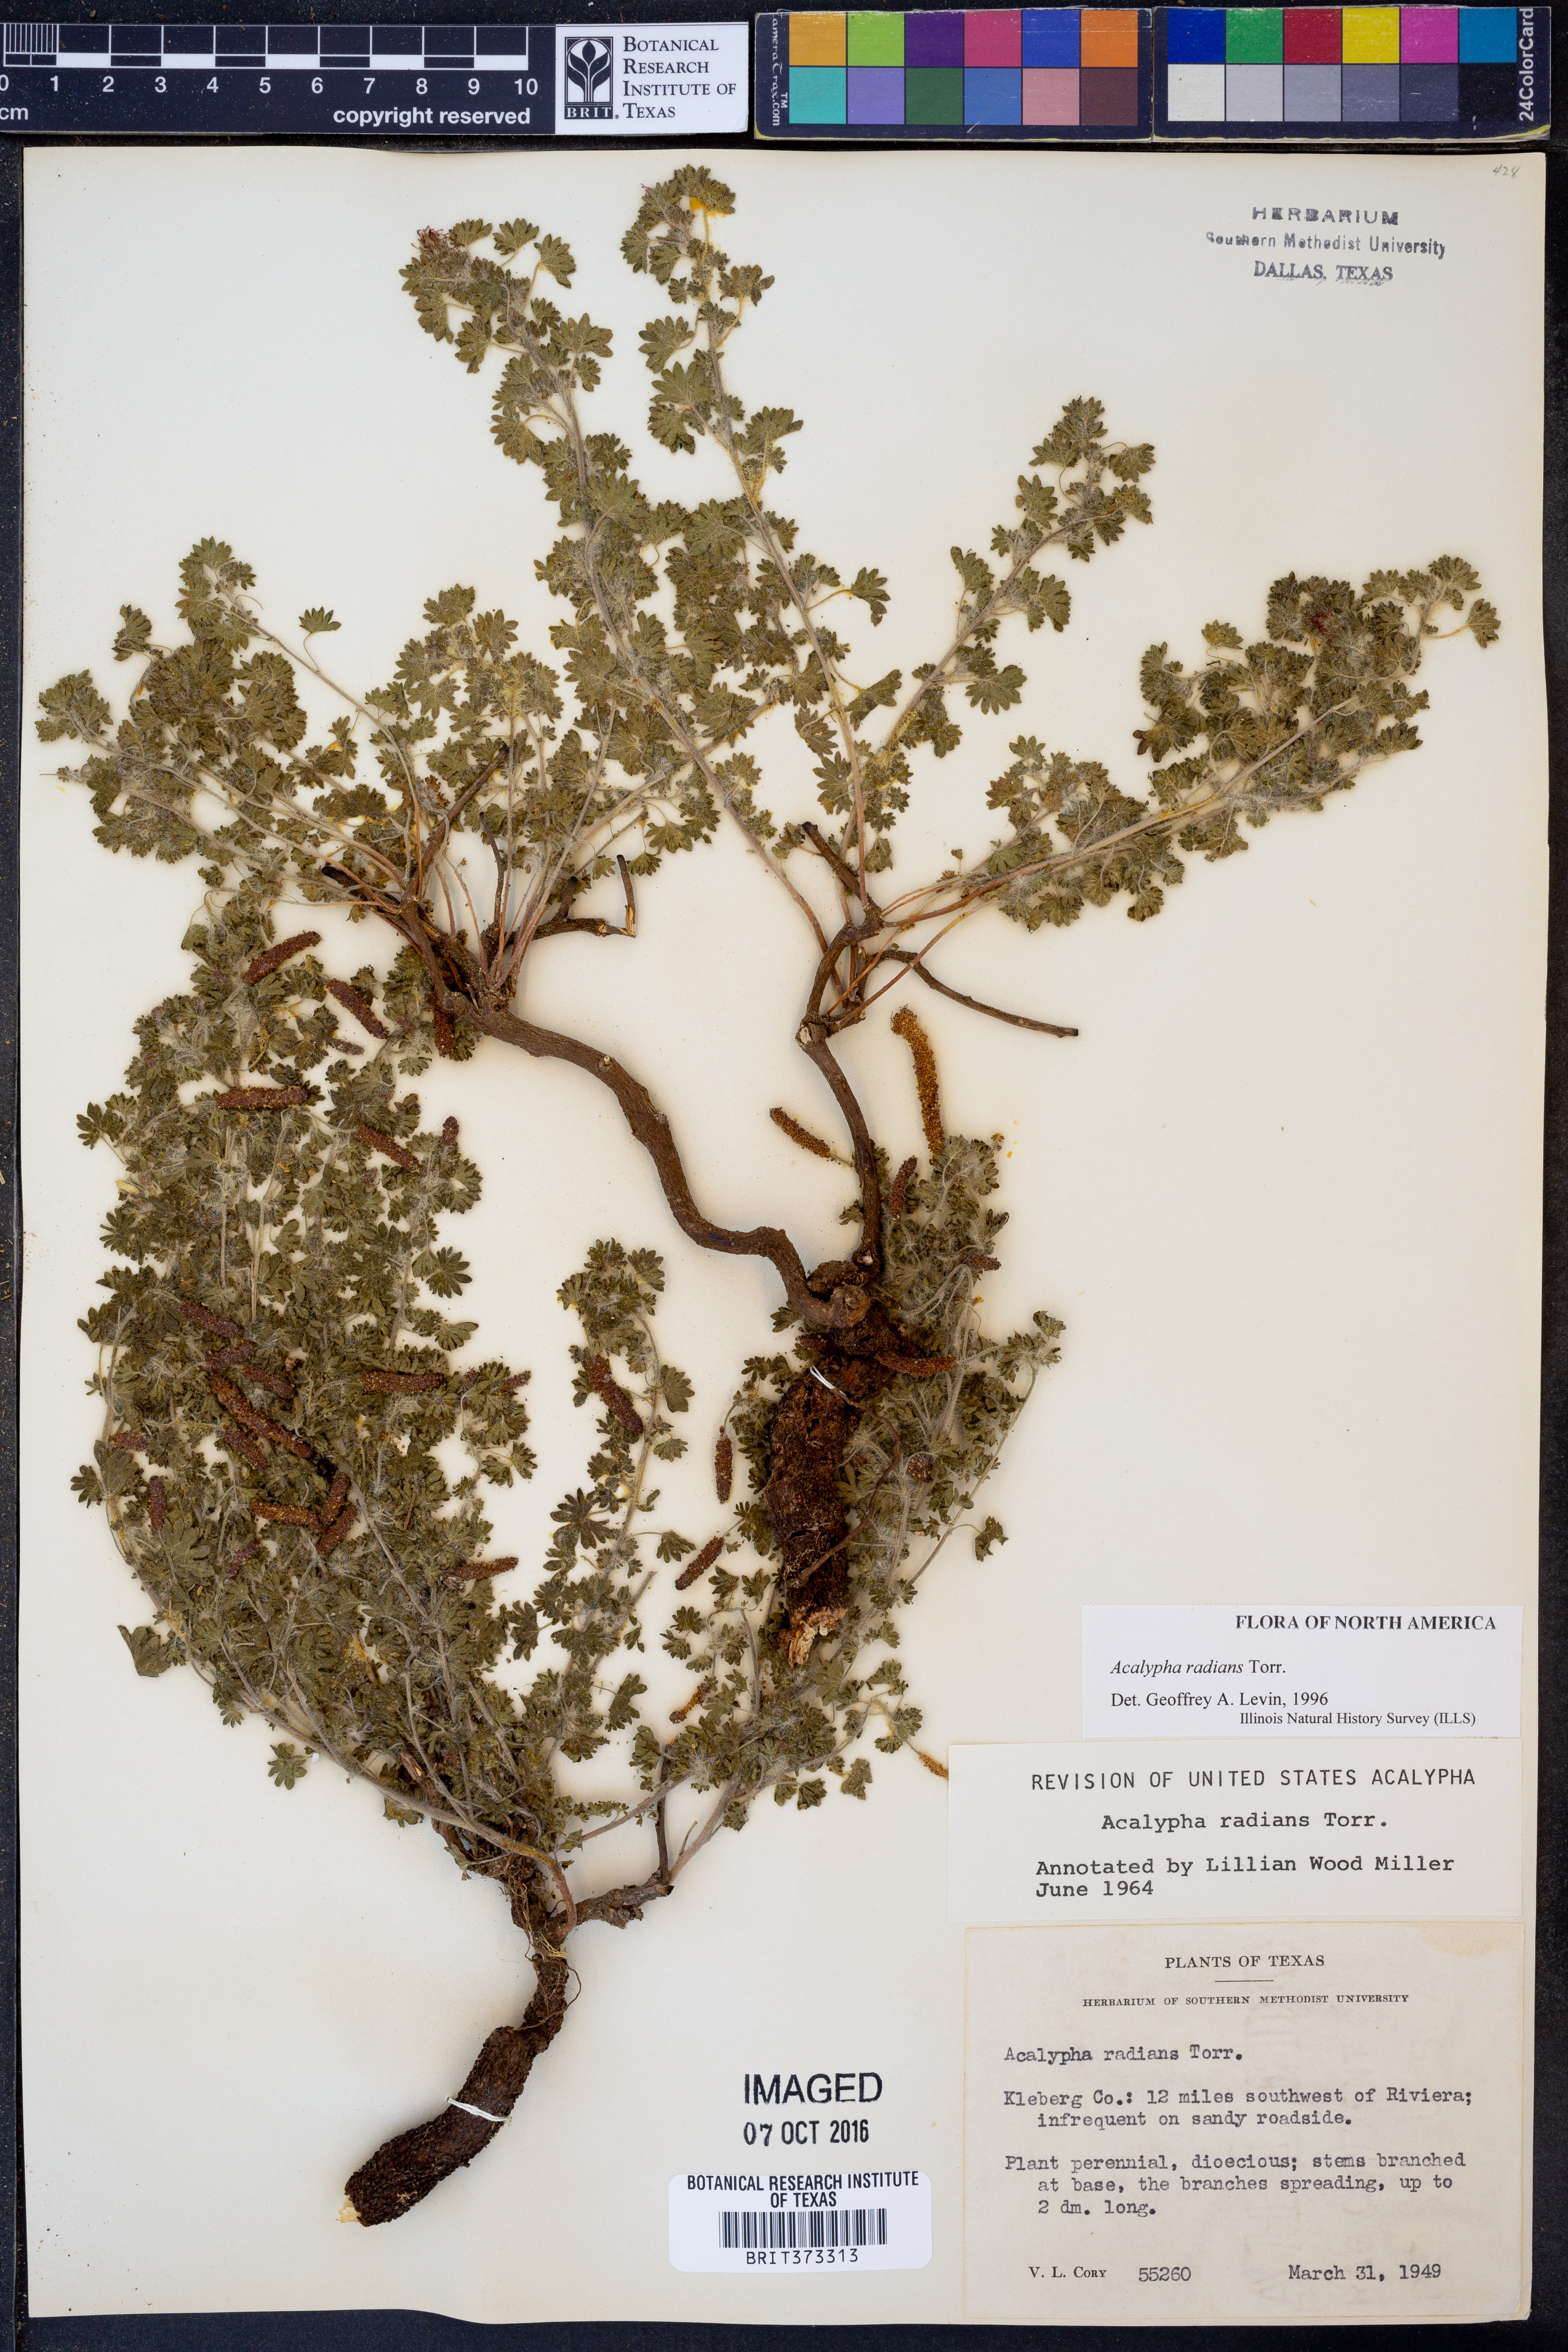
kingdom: Plantae
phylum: Tracheophyta
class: Magnoliopsida
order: Malpighiales
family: Euphorbiaceae
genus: Acalypha
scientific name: Acalypha radians
